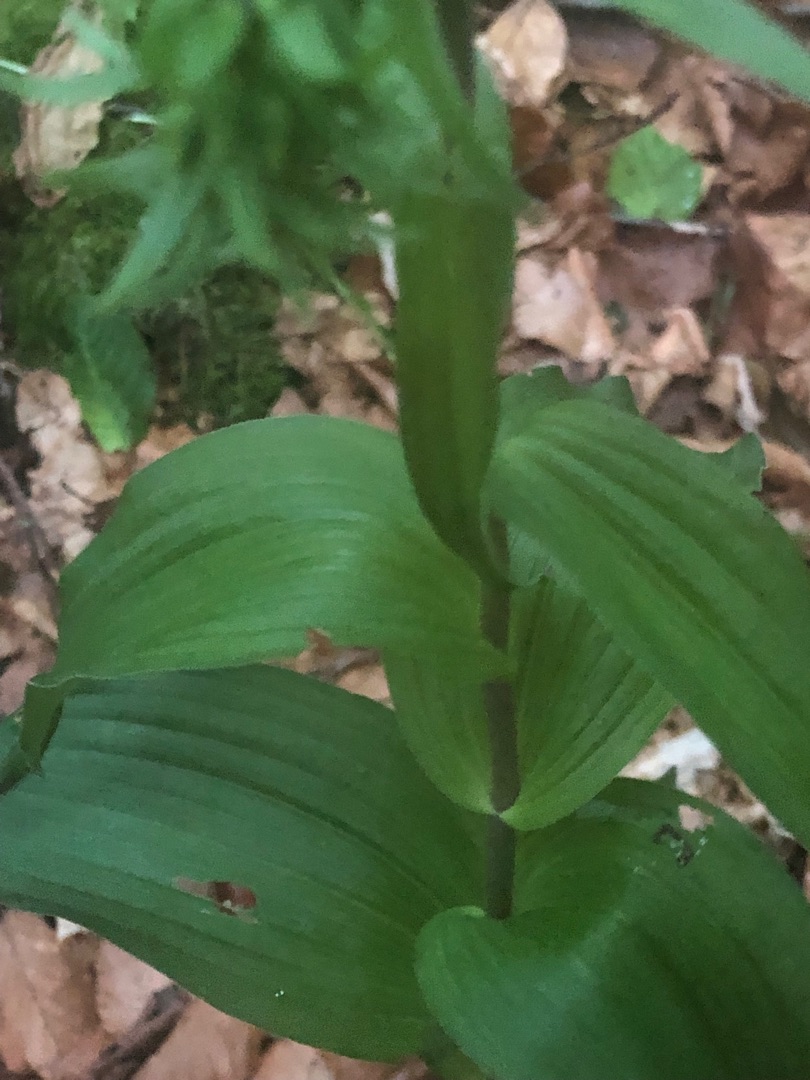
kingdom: Plantae
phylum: Tracheophyta
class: Liliopsida
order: Asparagales
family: Orchidaceae
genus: Epipactis
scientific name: Epipactis helleborine
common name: Skov-hullæbe
